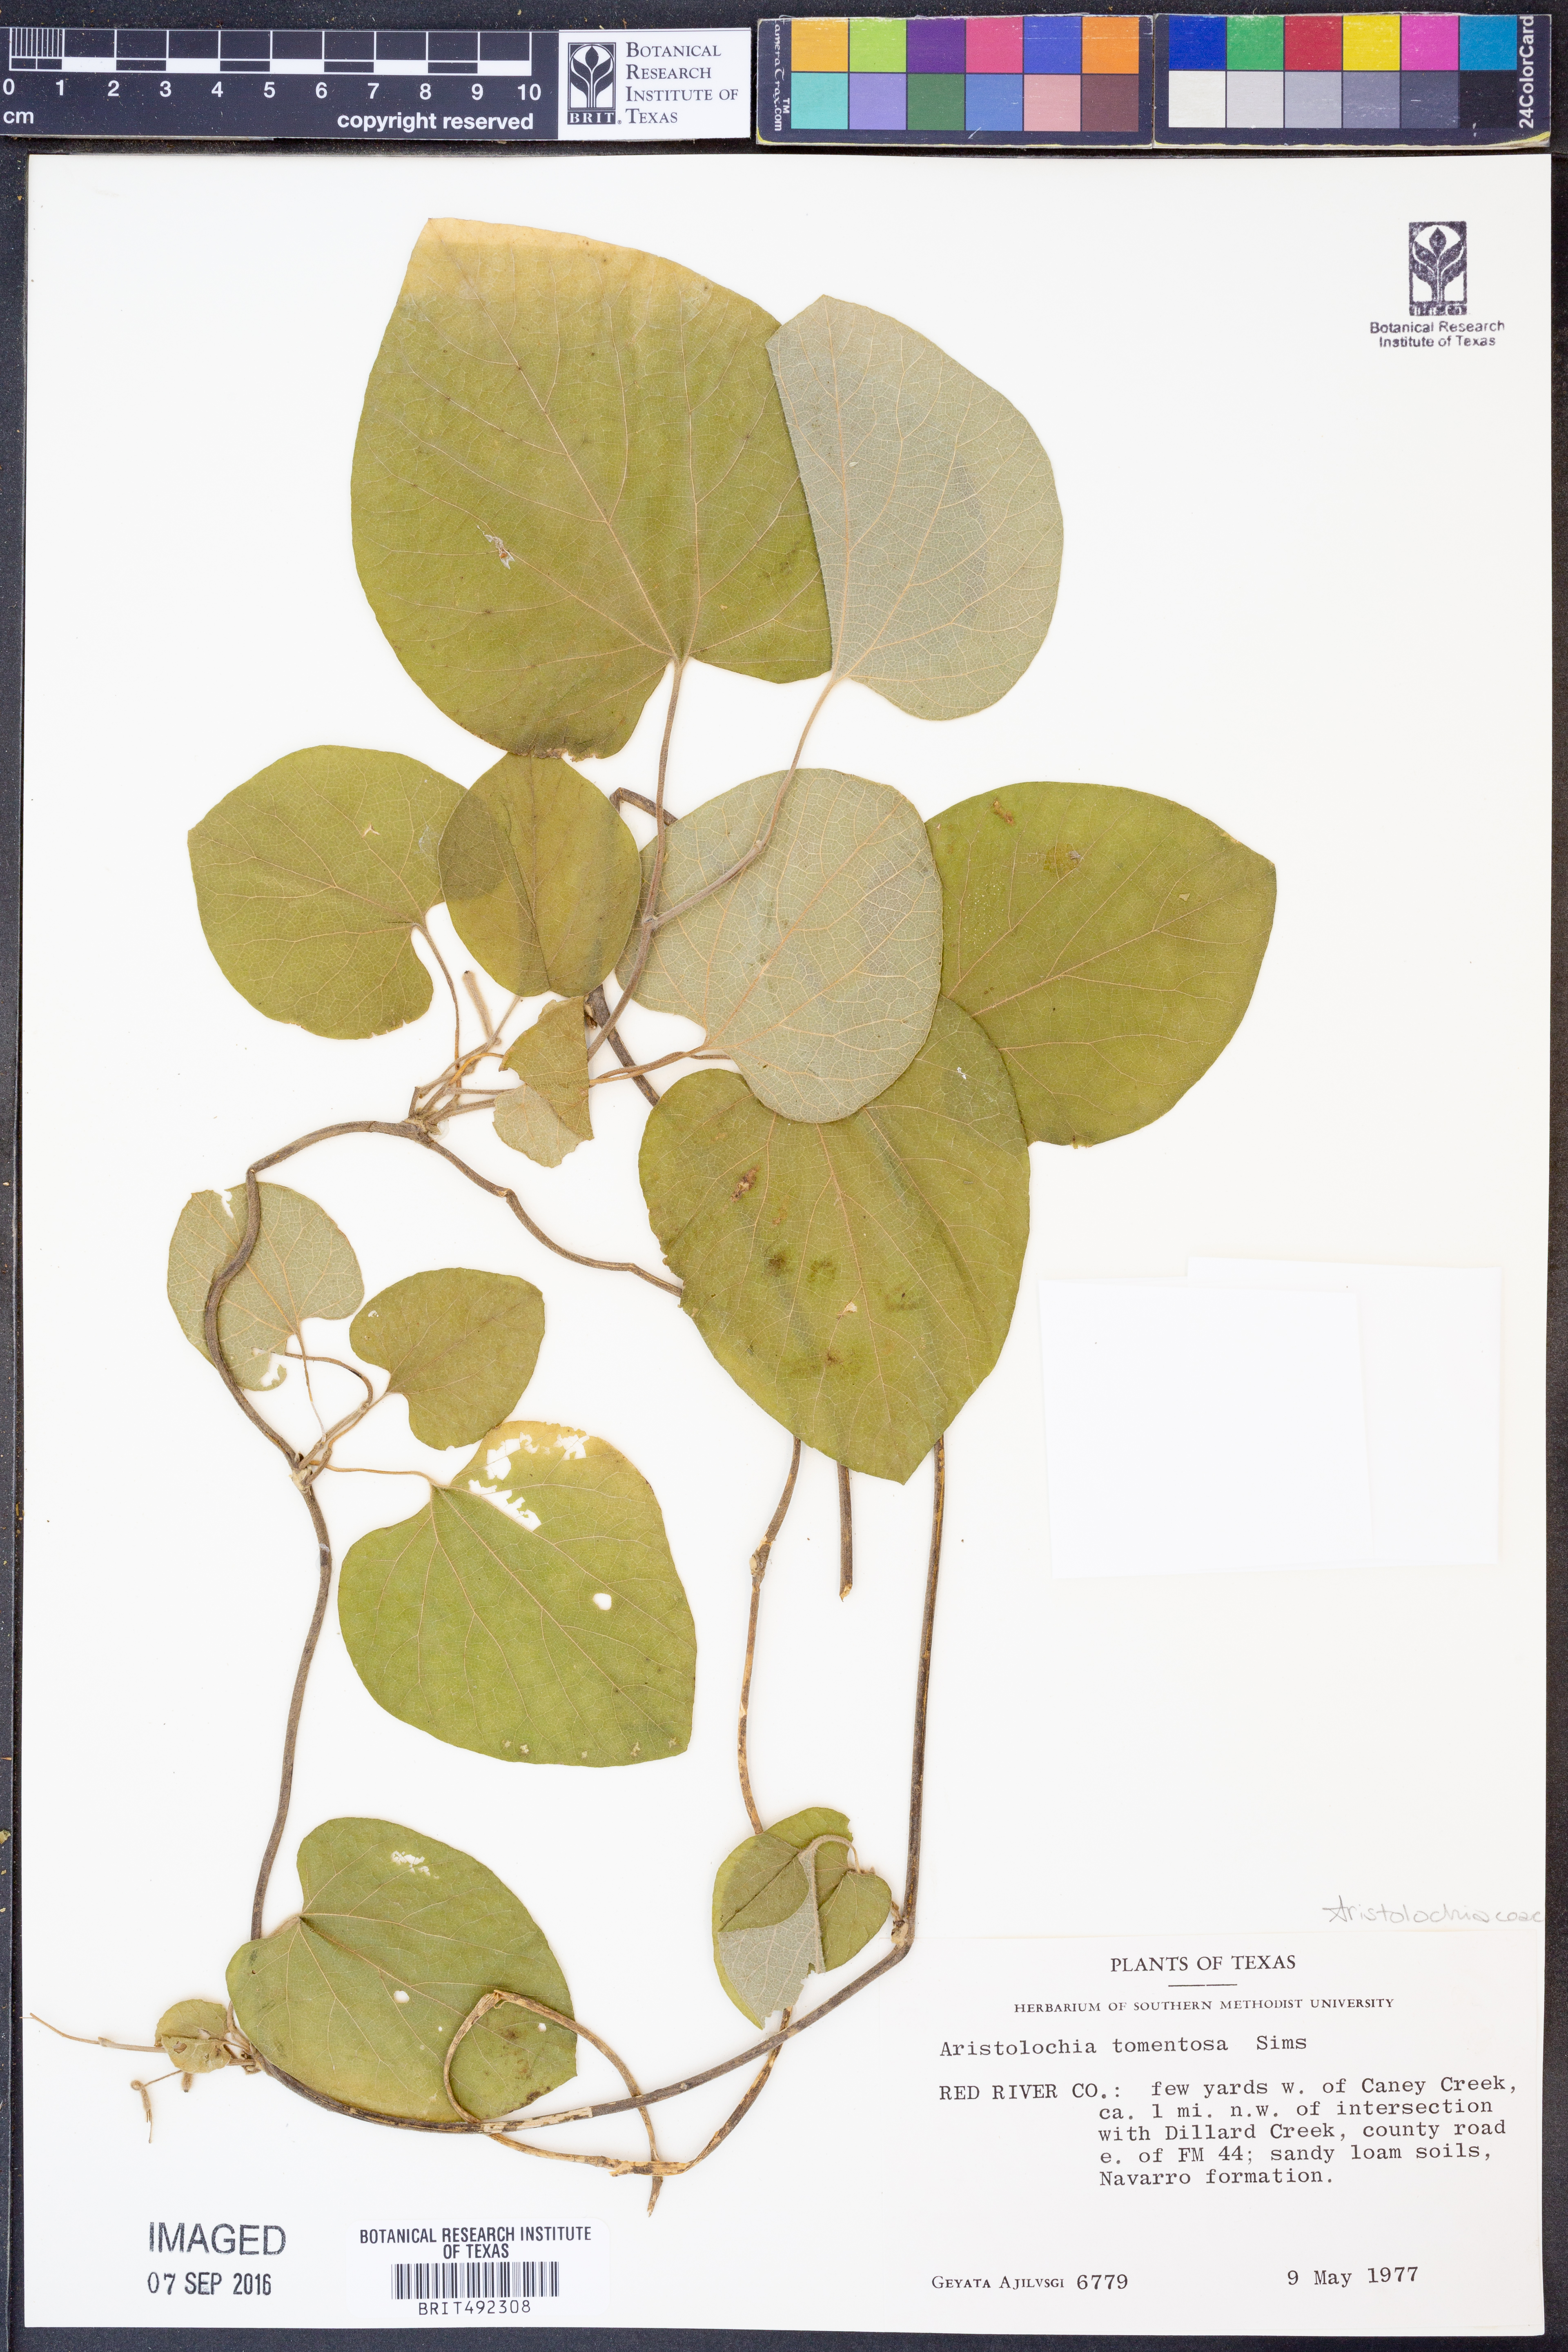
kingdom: Plantae
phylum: Tracheophyta
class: Magnoliopsida
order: Piperales
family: Aristolochiaceae
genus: Isotrema
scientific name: Isotrema tomentosum
